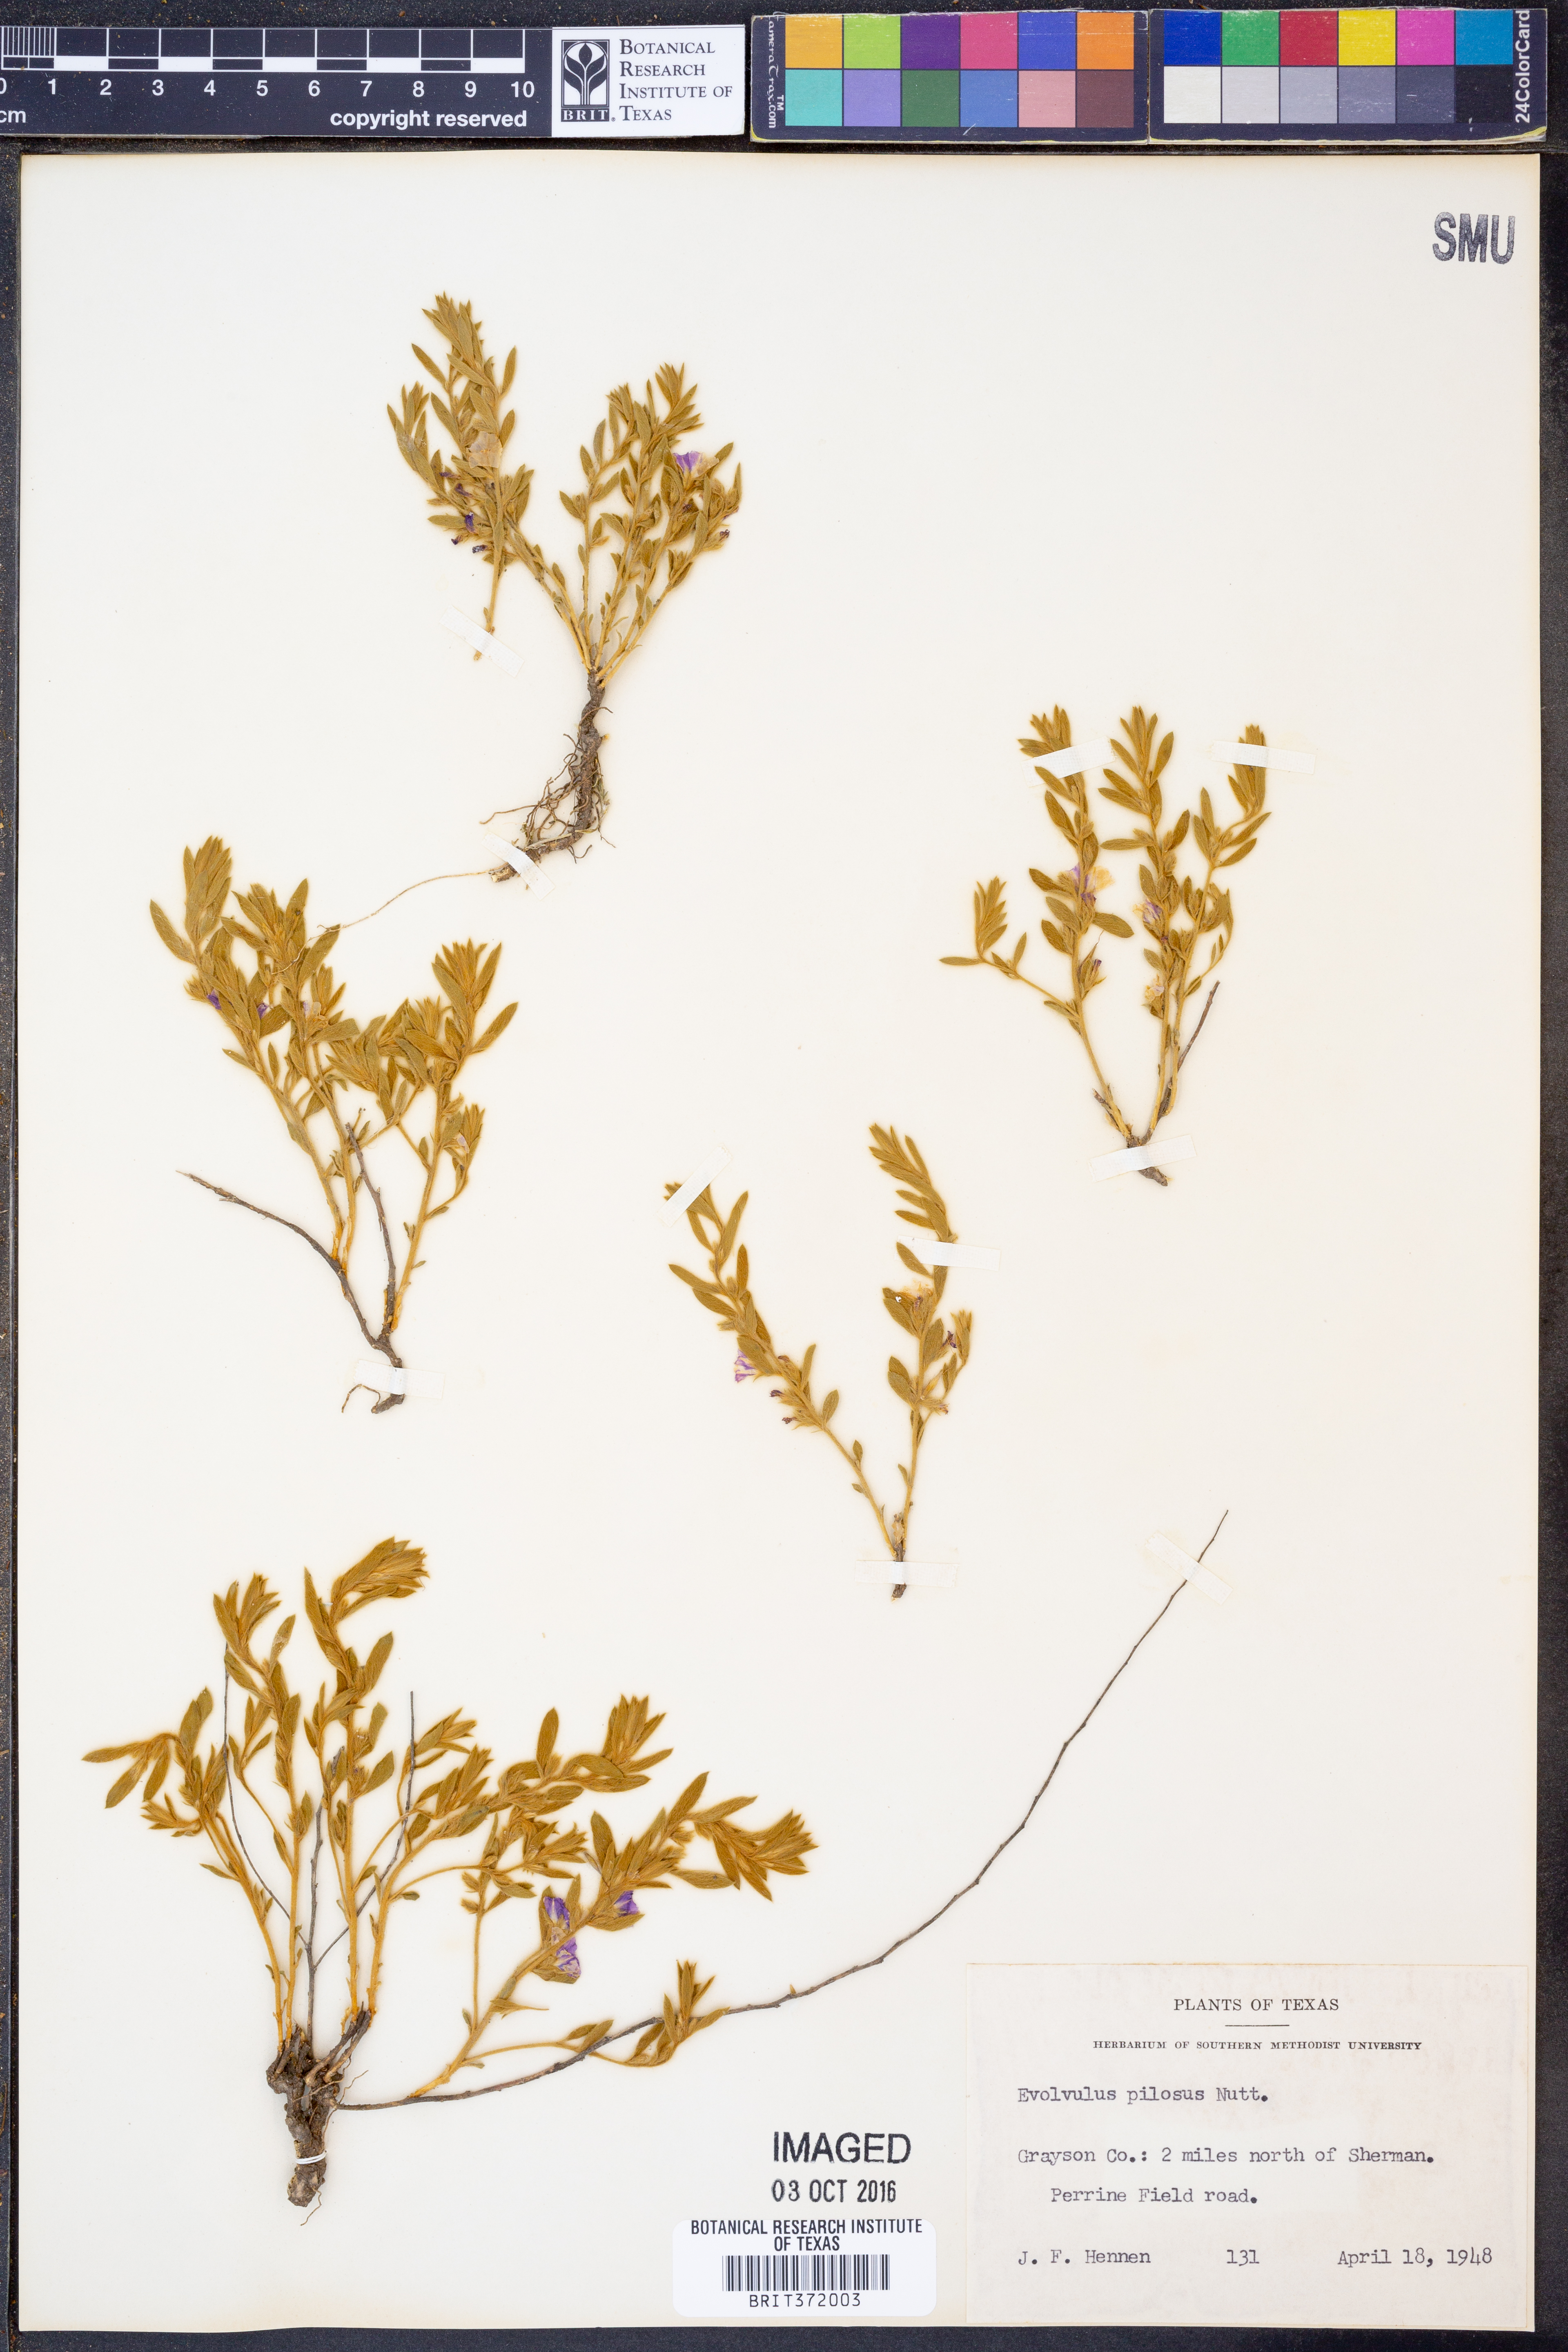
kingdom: Plantae
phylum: Tracheophyta
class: Magnoliopsida
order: Solanales
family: Convolvulaceae
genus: Evolvulus
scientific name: Evolvulus nuttallianus
